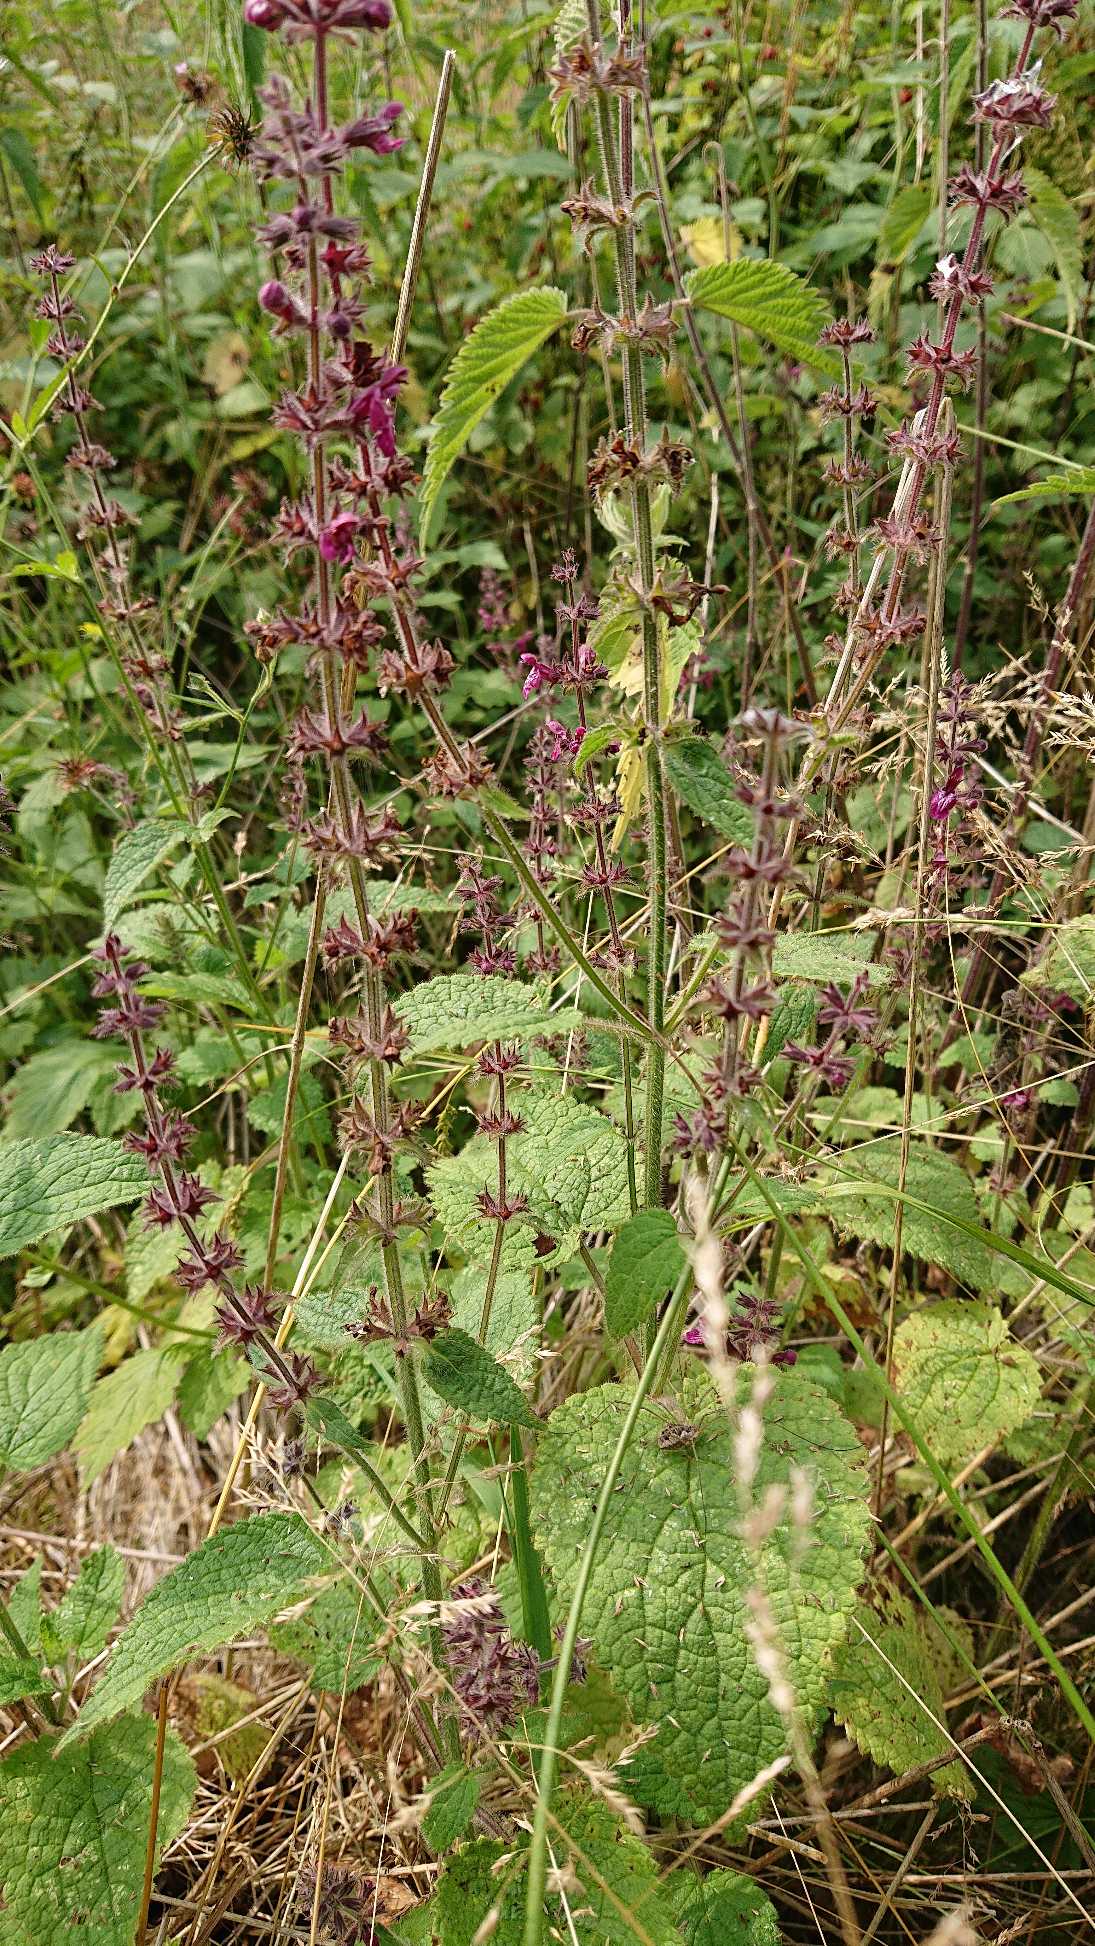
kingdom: Plantae
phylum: Tracheophyta
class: Magnoliopsida
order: Lamiales
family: Lamiaceae
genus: Stachys
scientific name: Stachys sylvatica
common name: Skov-galtetand
